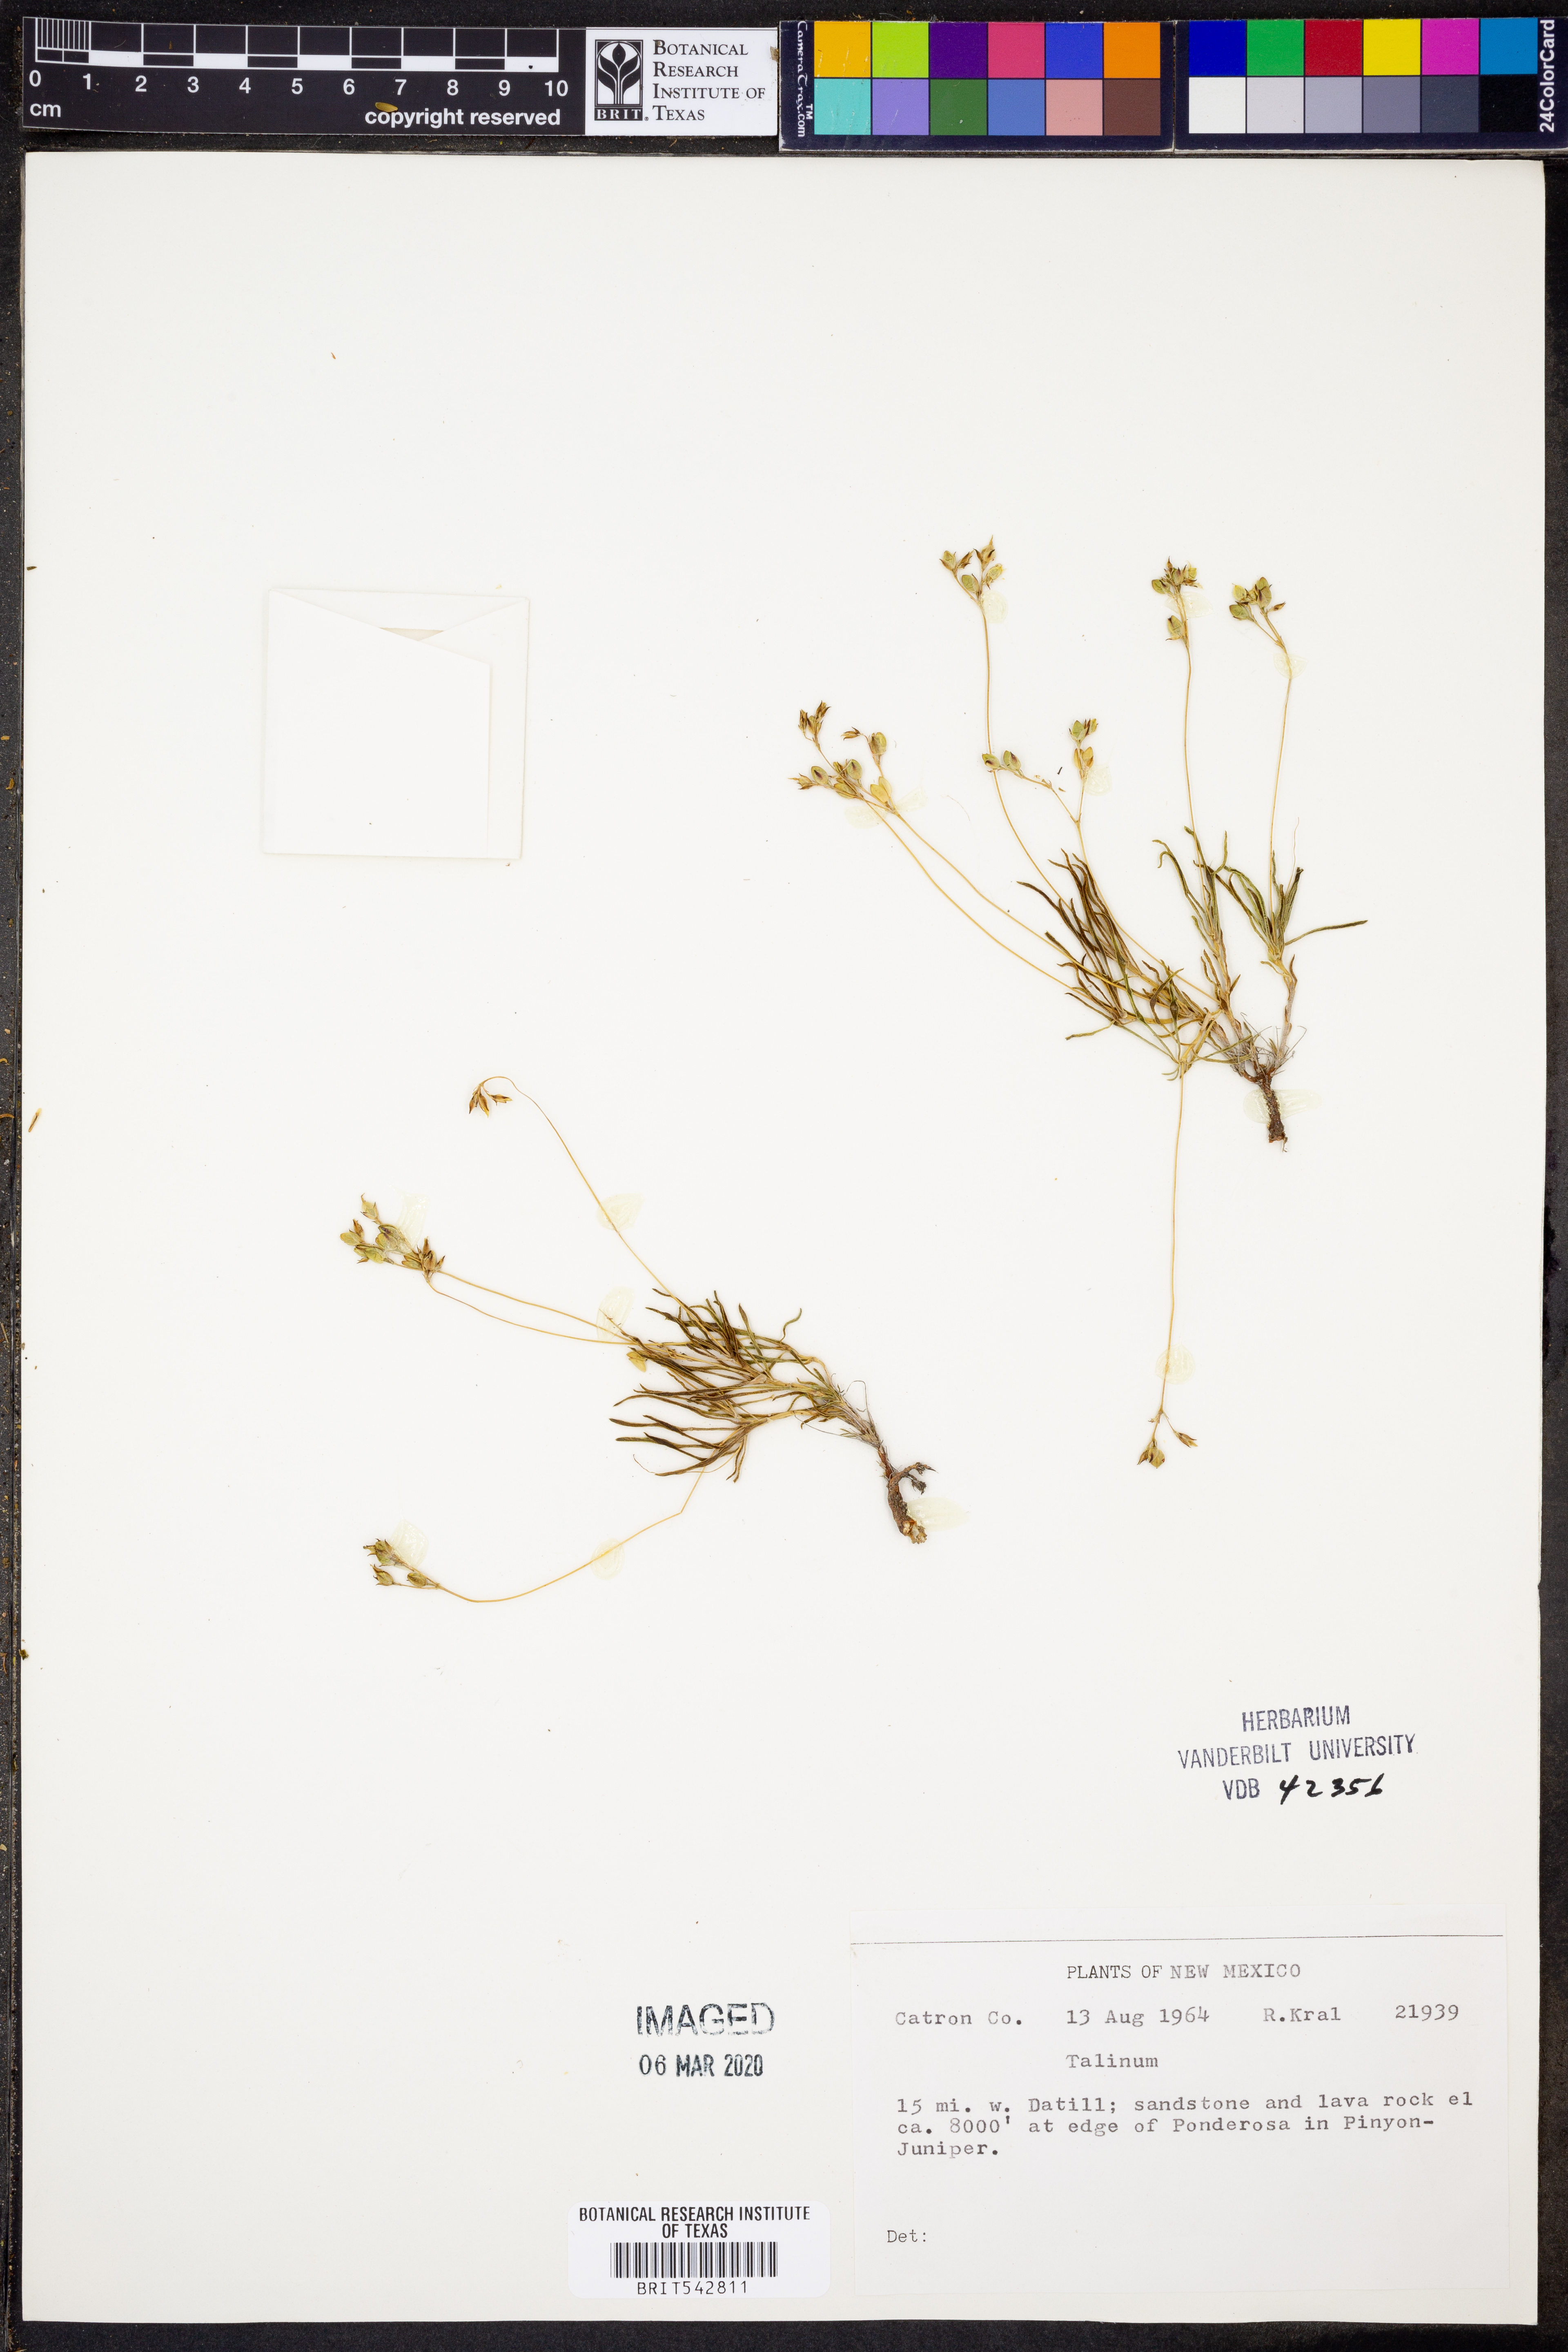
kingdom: Plantae
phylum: Tracheophyta
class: Magnoliopsida
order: Caryophyllales
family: Talinaceae
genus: Talinum
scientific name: Talinum
